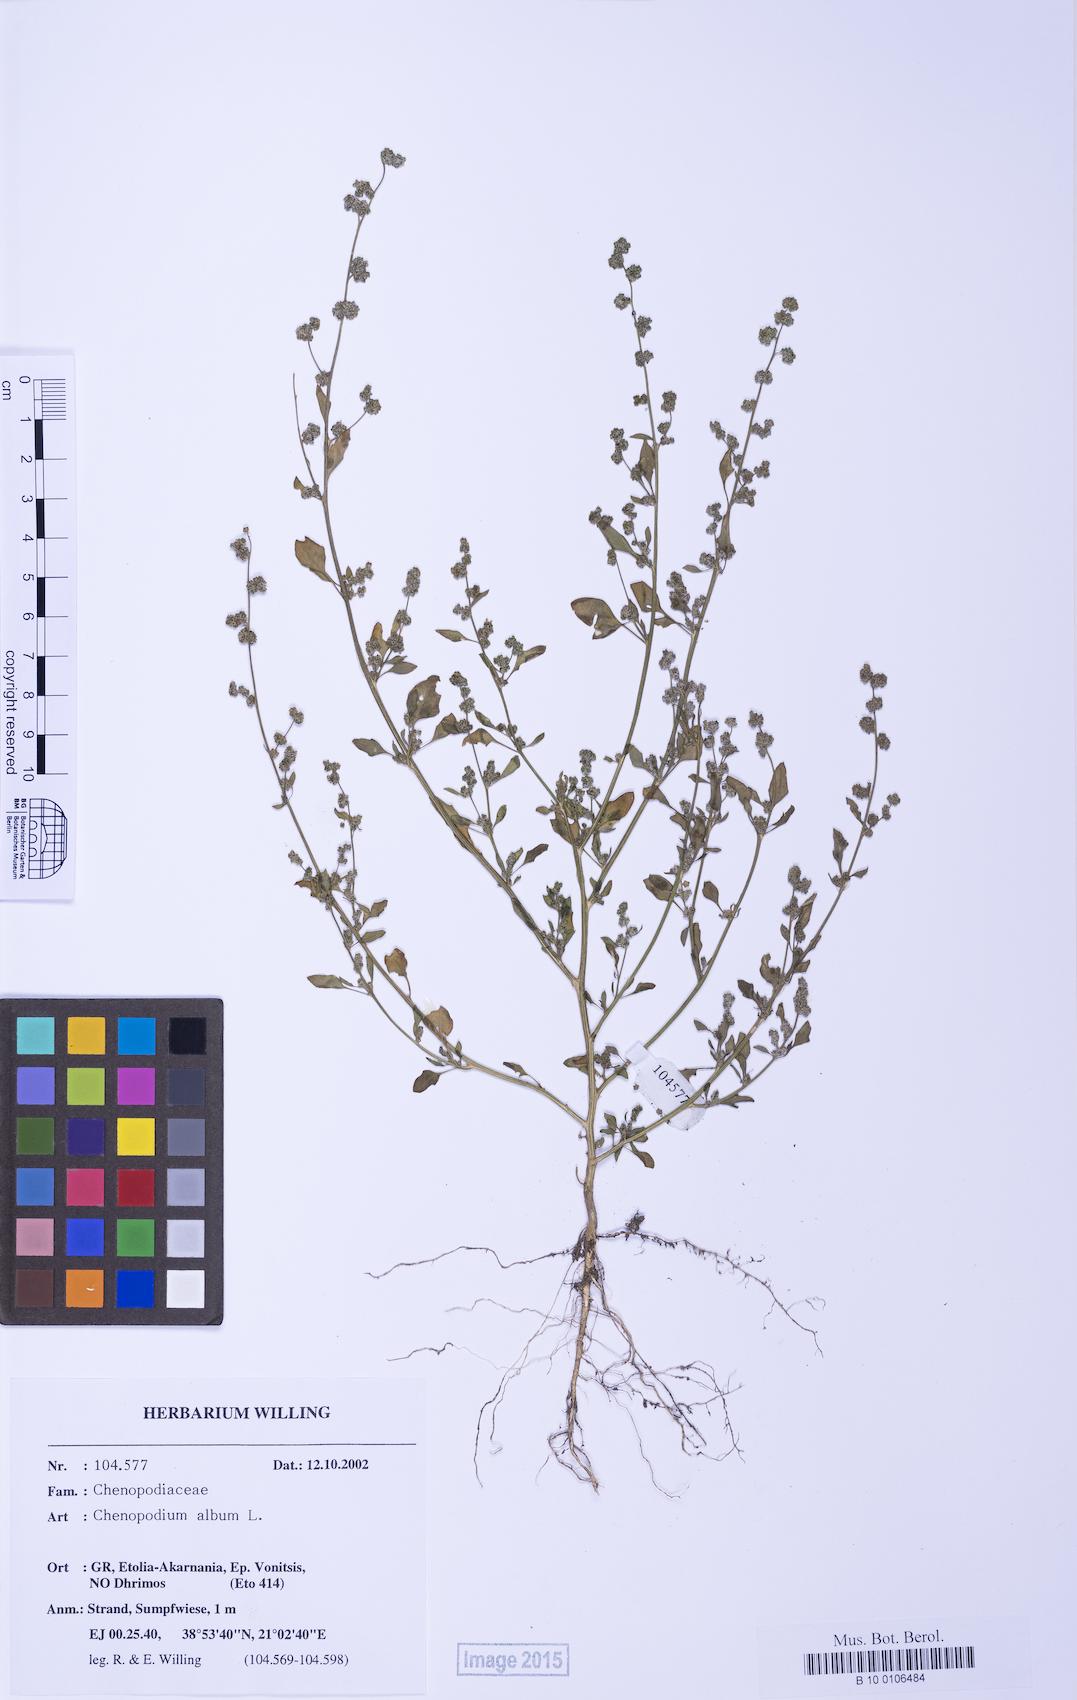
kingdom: Plantae
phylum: Tracheophyta
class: Magnoliopsida
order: Caryophyllales
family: Amaranthaceae
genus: Chenopodium
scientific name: Chenopodium striatiforme
